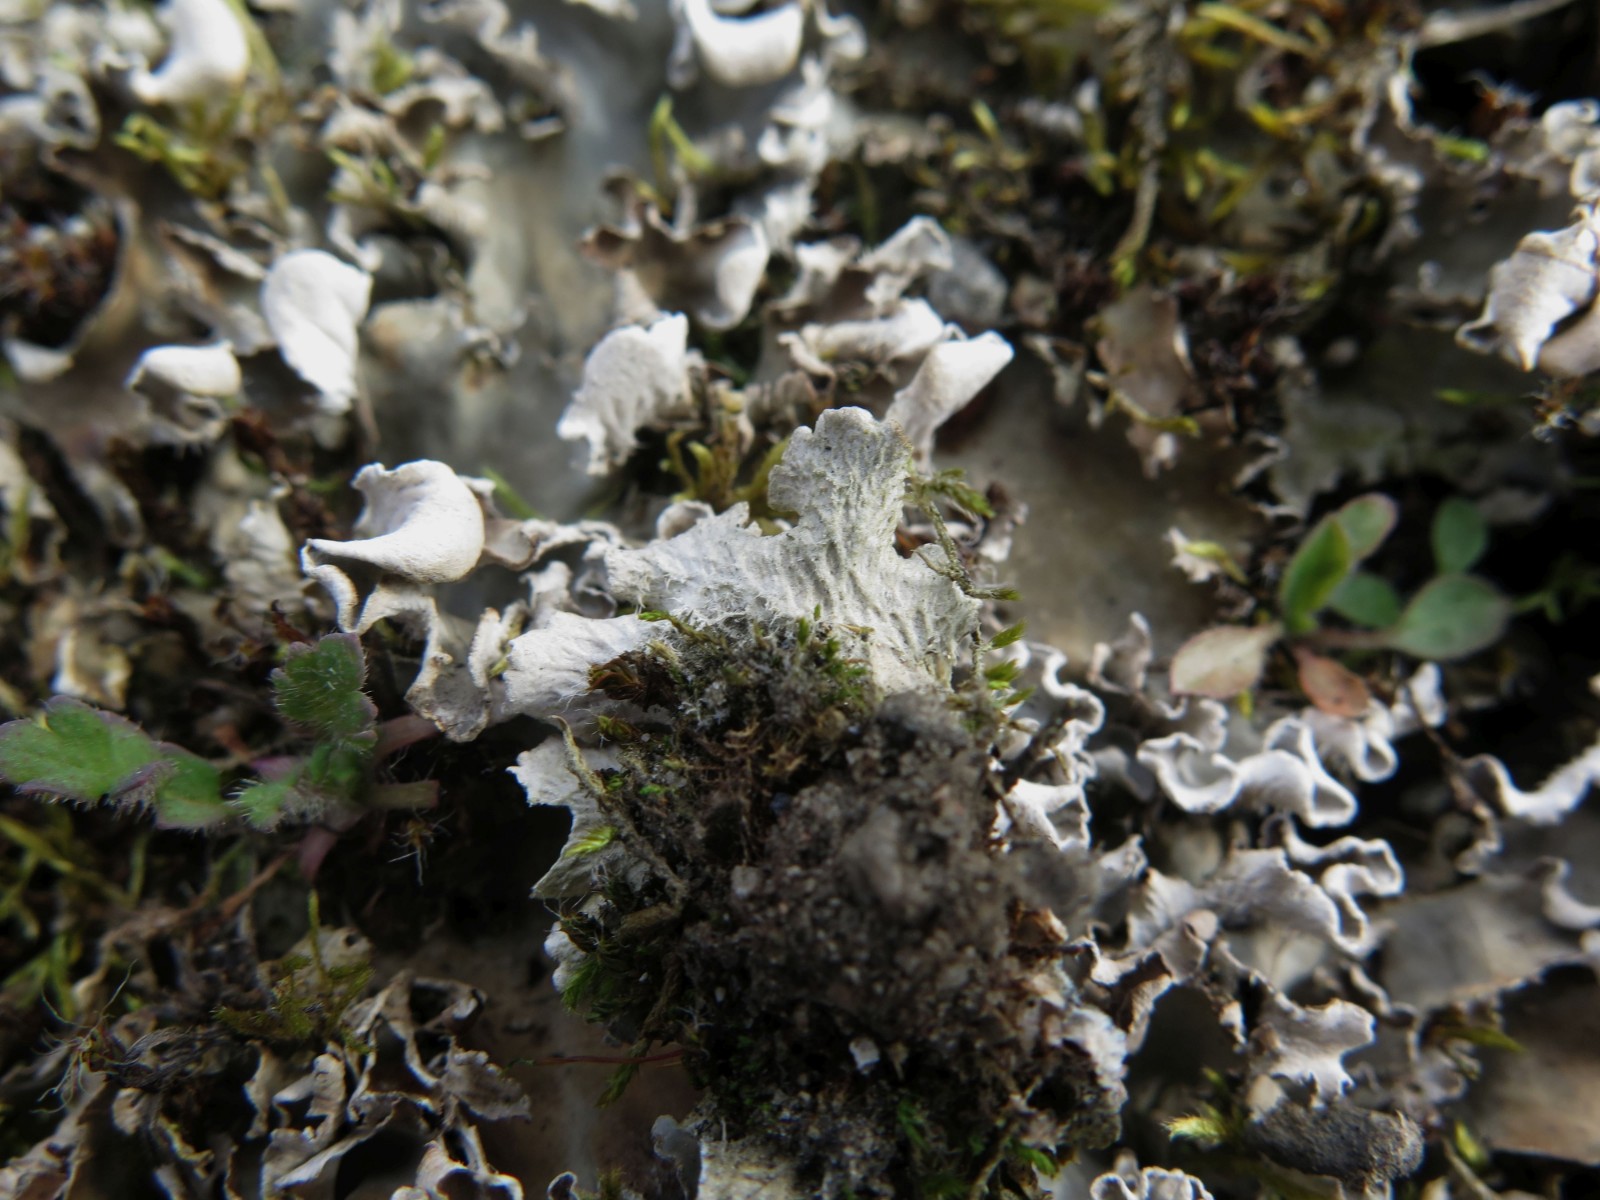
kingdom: Fungi
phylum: Ascomycota
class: Lecanoromycetes
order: Peltigerales
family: Peltigeraceae
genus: Peltigera
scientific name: Peltigera canina
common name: hunde-skjoldlav
